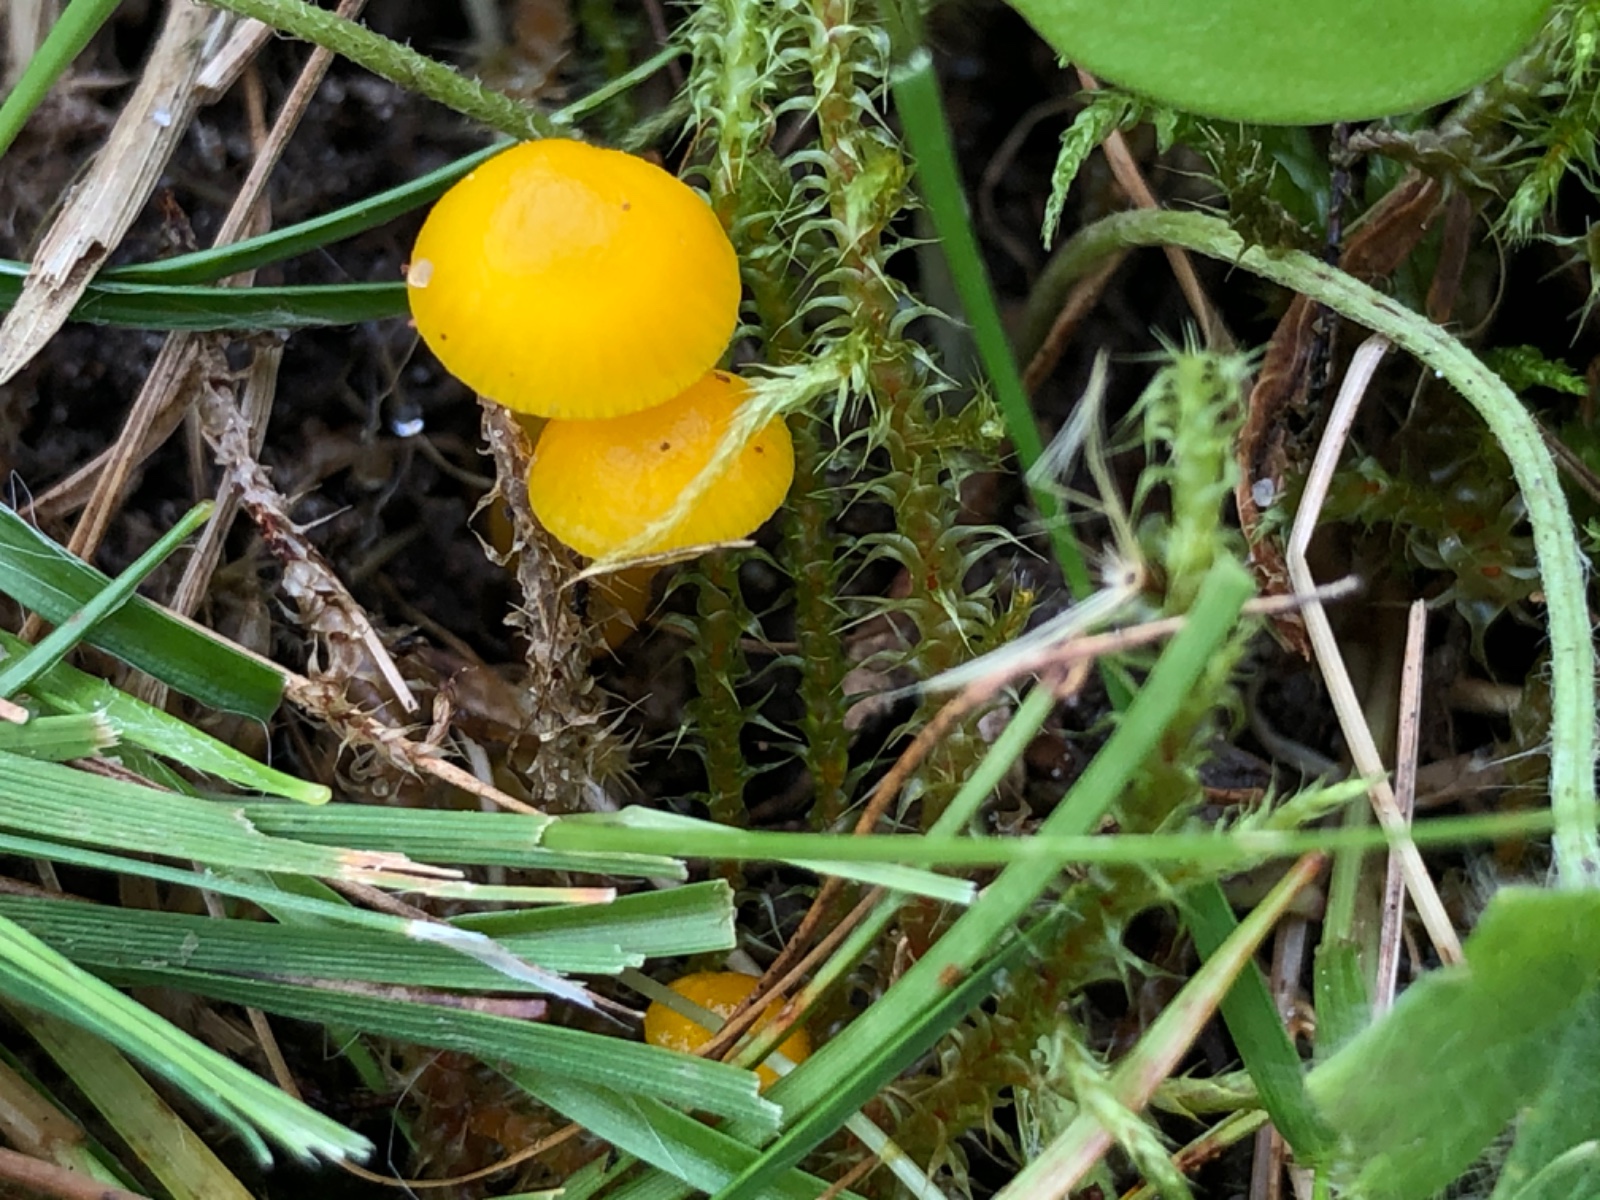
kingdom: Fungi
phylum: Basidiomycota
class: Agaricomycetes
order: Agaricales
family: Hygrophoraceae
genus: Hygrocybe
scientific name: Hygrocybe glutinipes
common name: slimstokket vokshat
